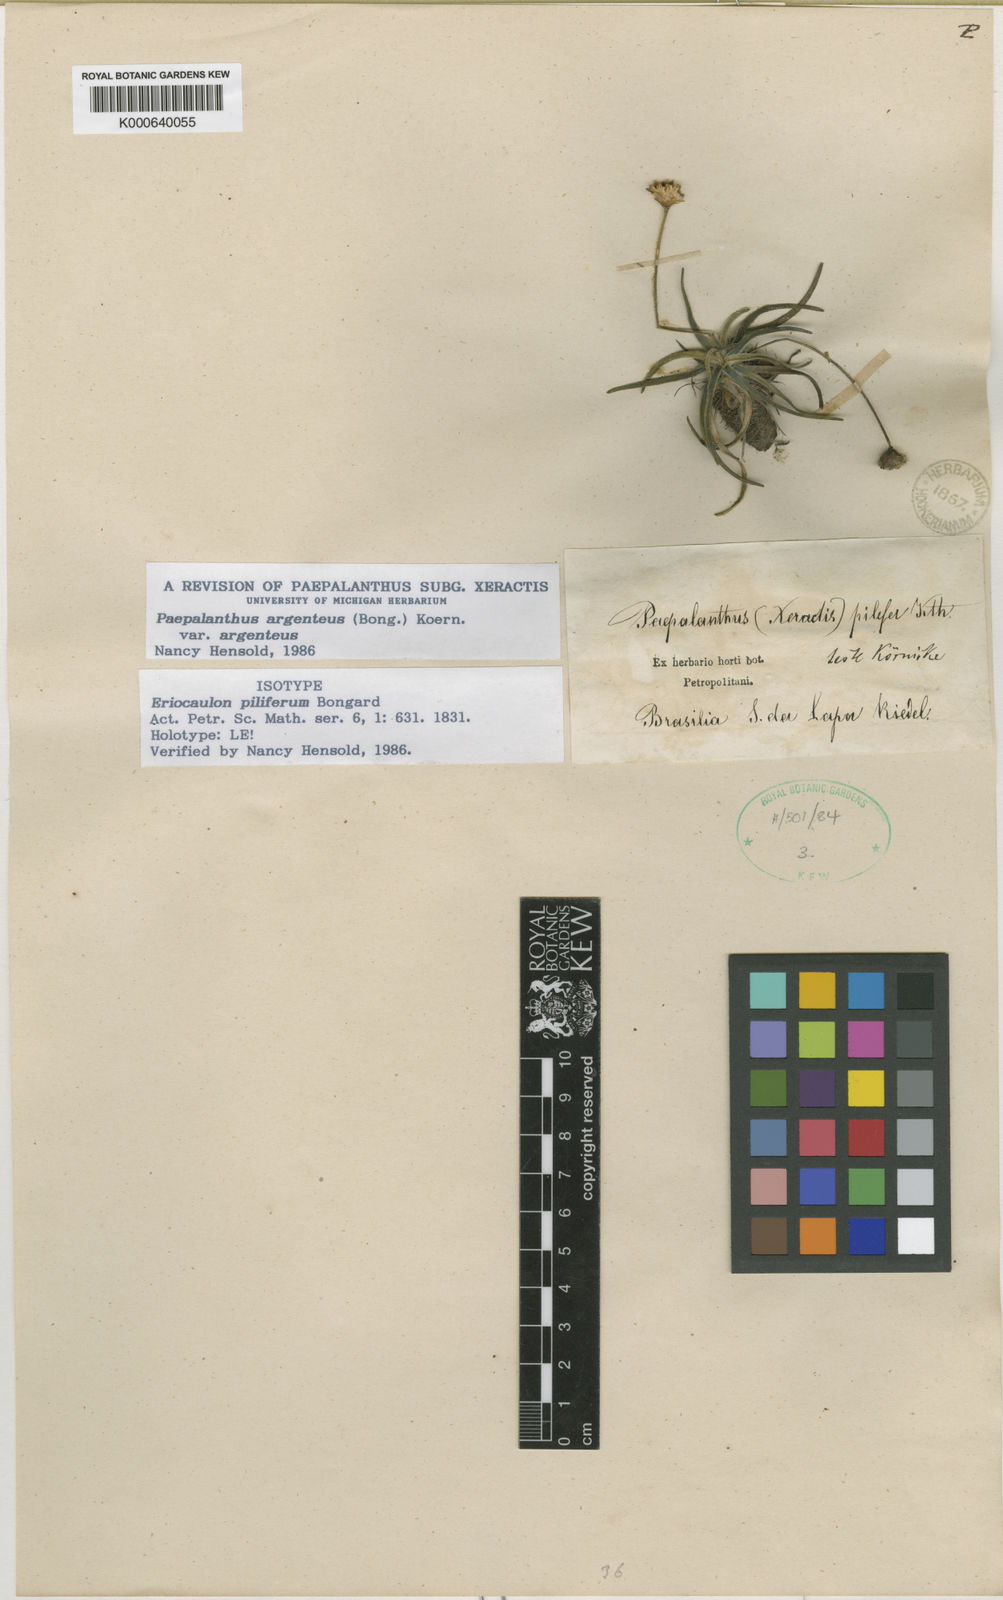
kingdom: Plantae
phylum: Tracheophyta
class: Liliopsida
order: Poales
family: Eriocaulaceae
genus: Paepalanthus
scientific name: Paepalanthus
